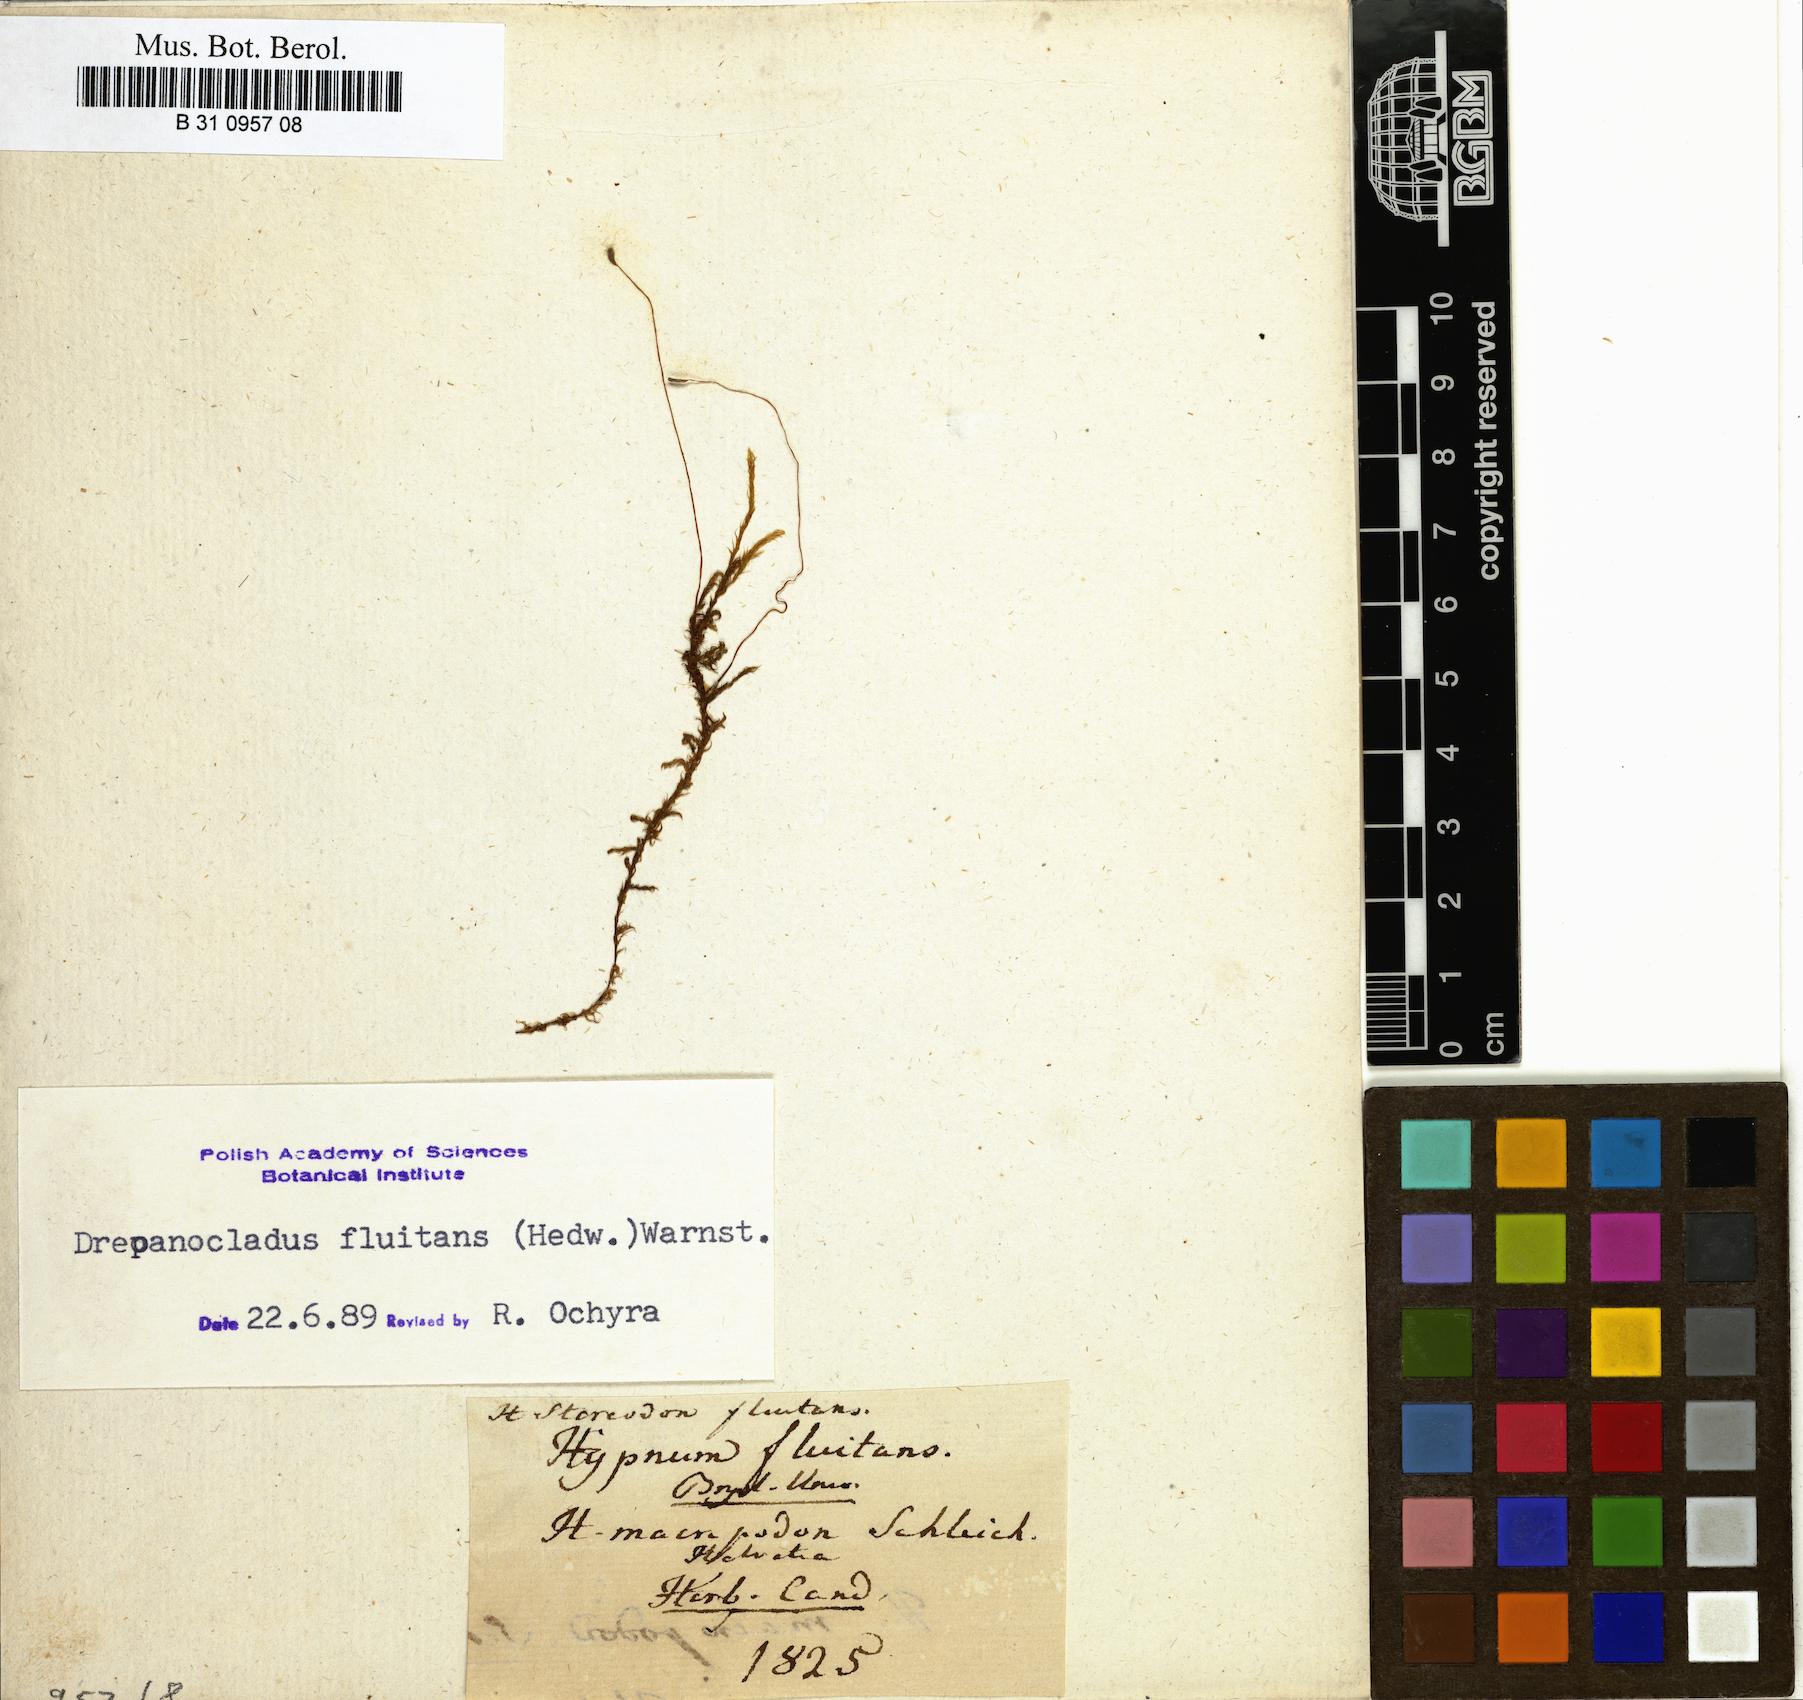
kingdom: Plantae
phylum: Bryophyta
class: Bryopsida
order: Hypnales
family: Calliergonaceae
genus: Warnstorfia
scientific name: Warnstorfia fluitans
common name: Floating hook moss
